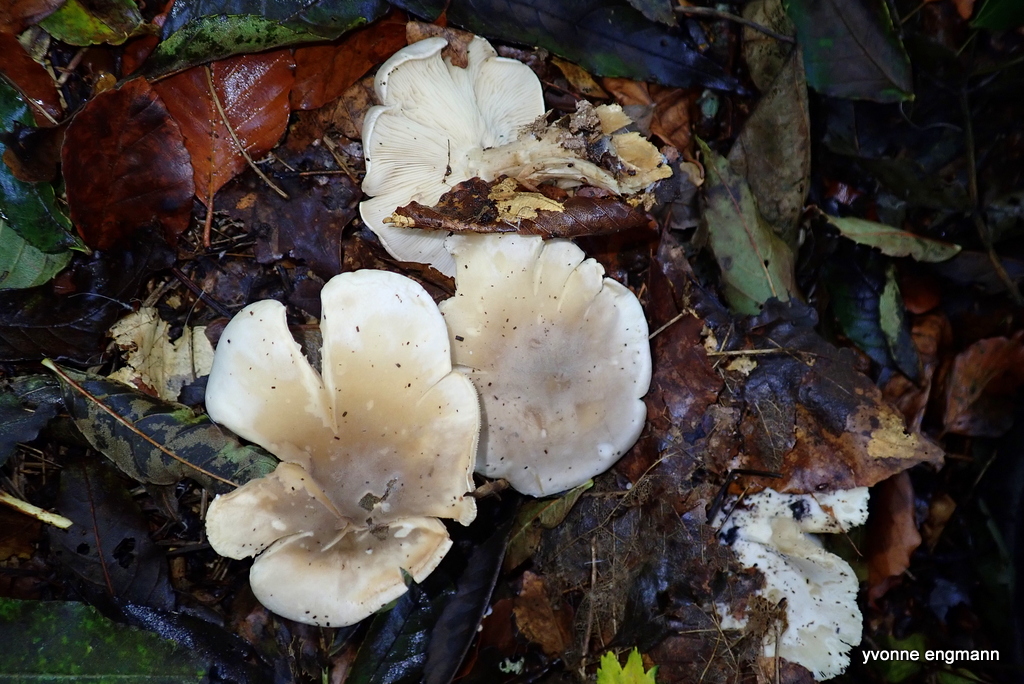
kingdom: Fungi
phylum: Basidiomycota
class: Agaricomycetes
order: Agaricales
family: Tricholomataceae
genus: Clitocybe
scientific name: Clitocybe nebularis
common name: tåge-tragthat
